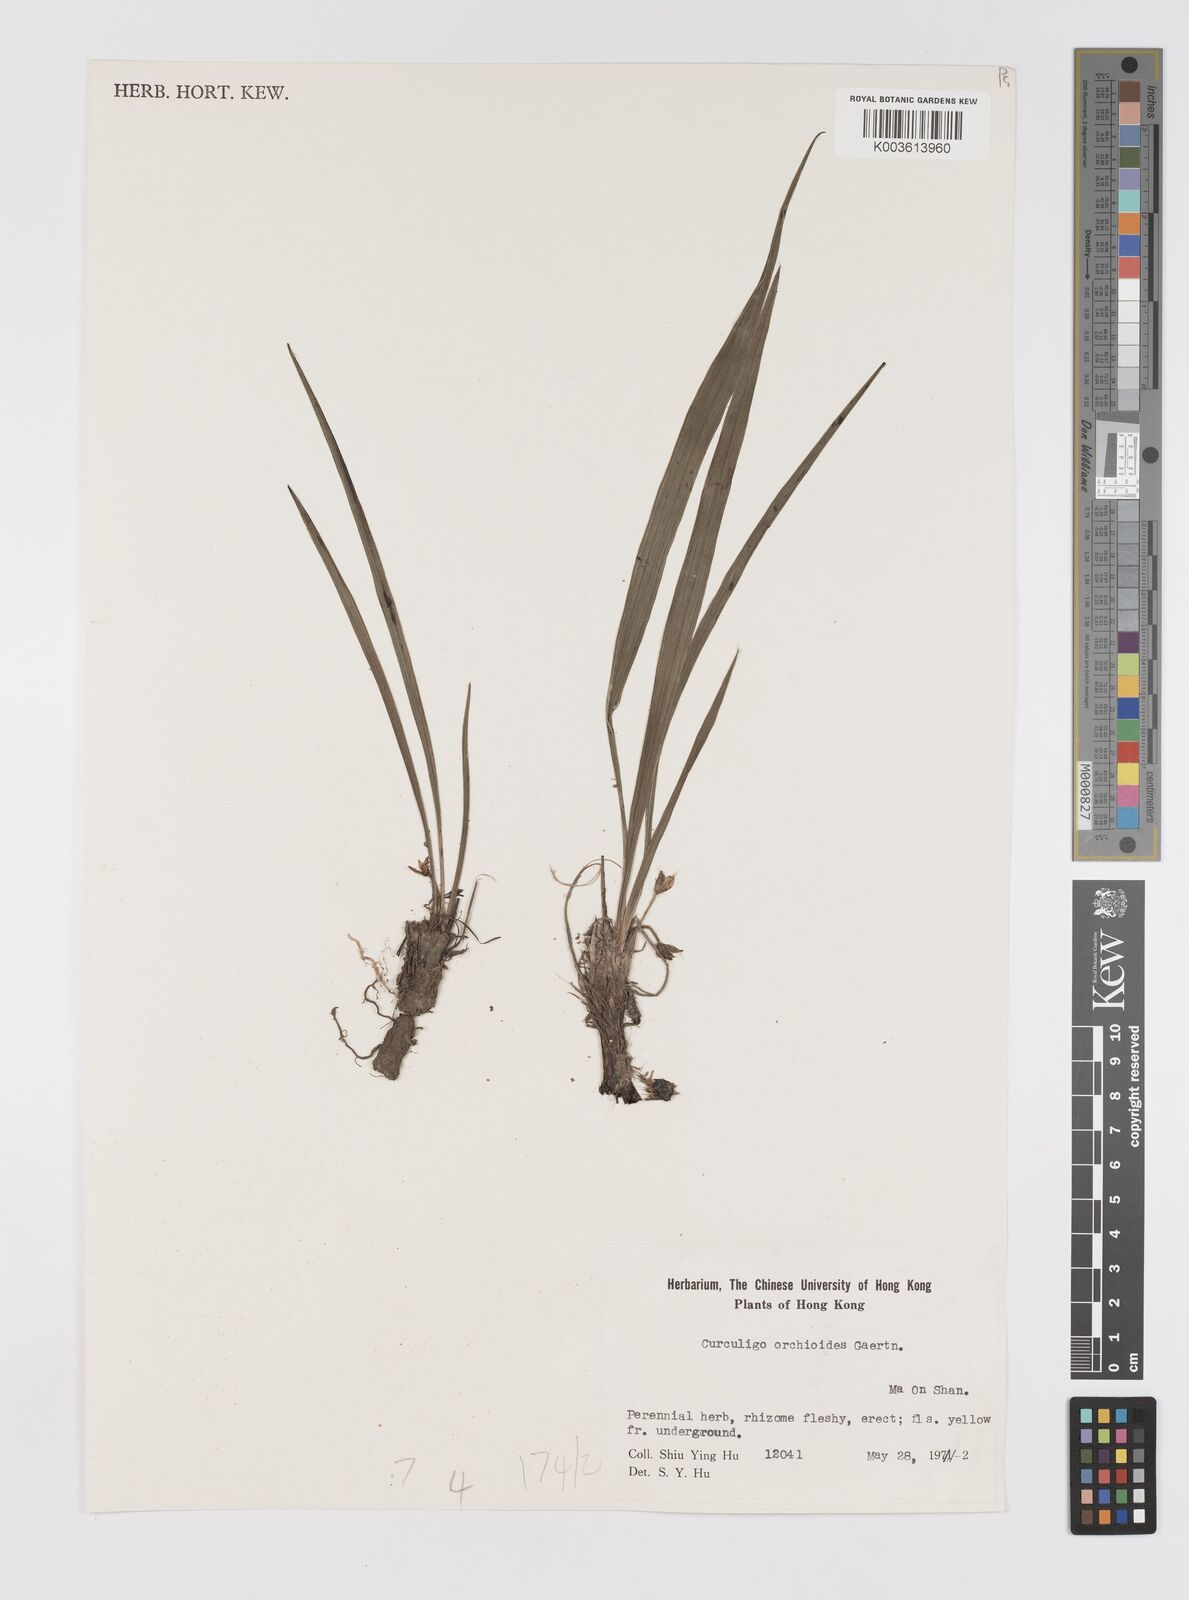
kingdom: Plantae
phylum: Tracheophyta
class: Liliopsida
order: Asparagales
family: Hypoxidaceae
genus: Curculigo
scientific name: Curculigo orchioides
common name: Golden eye-grass
